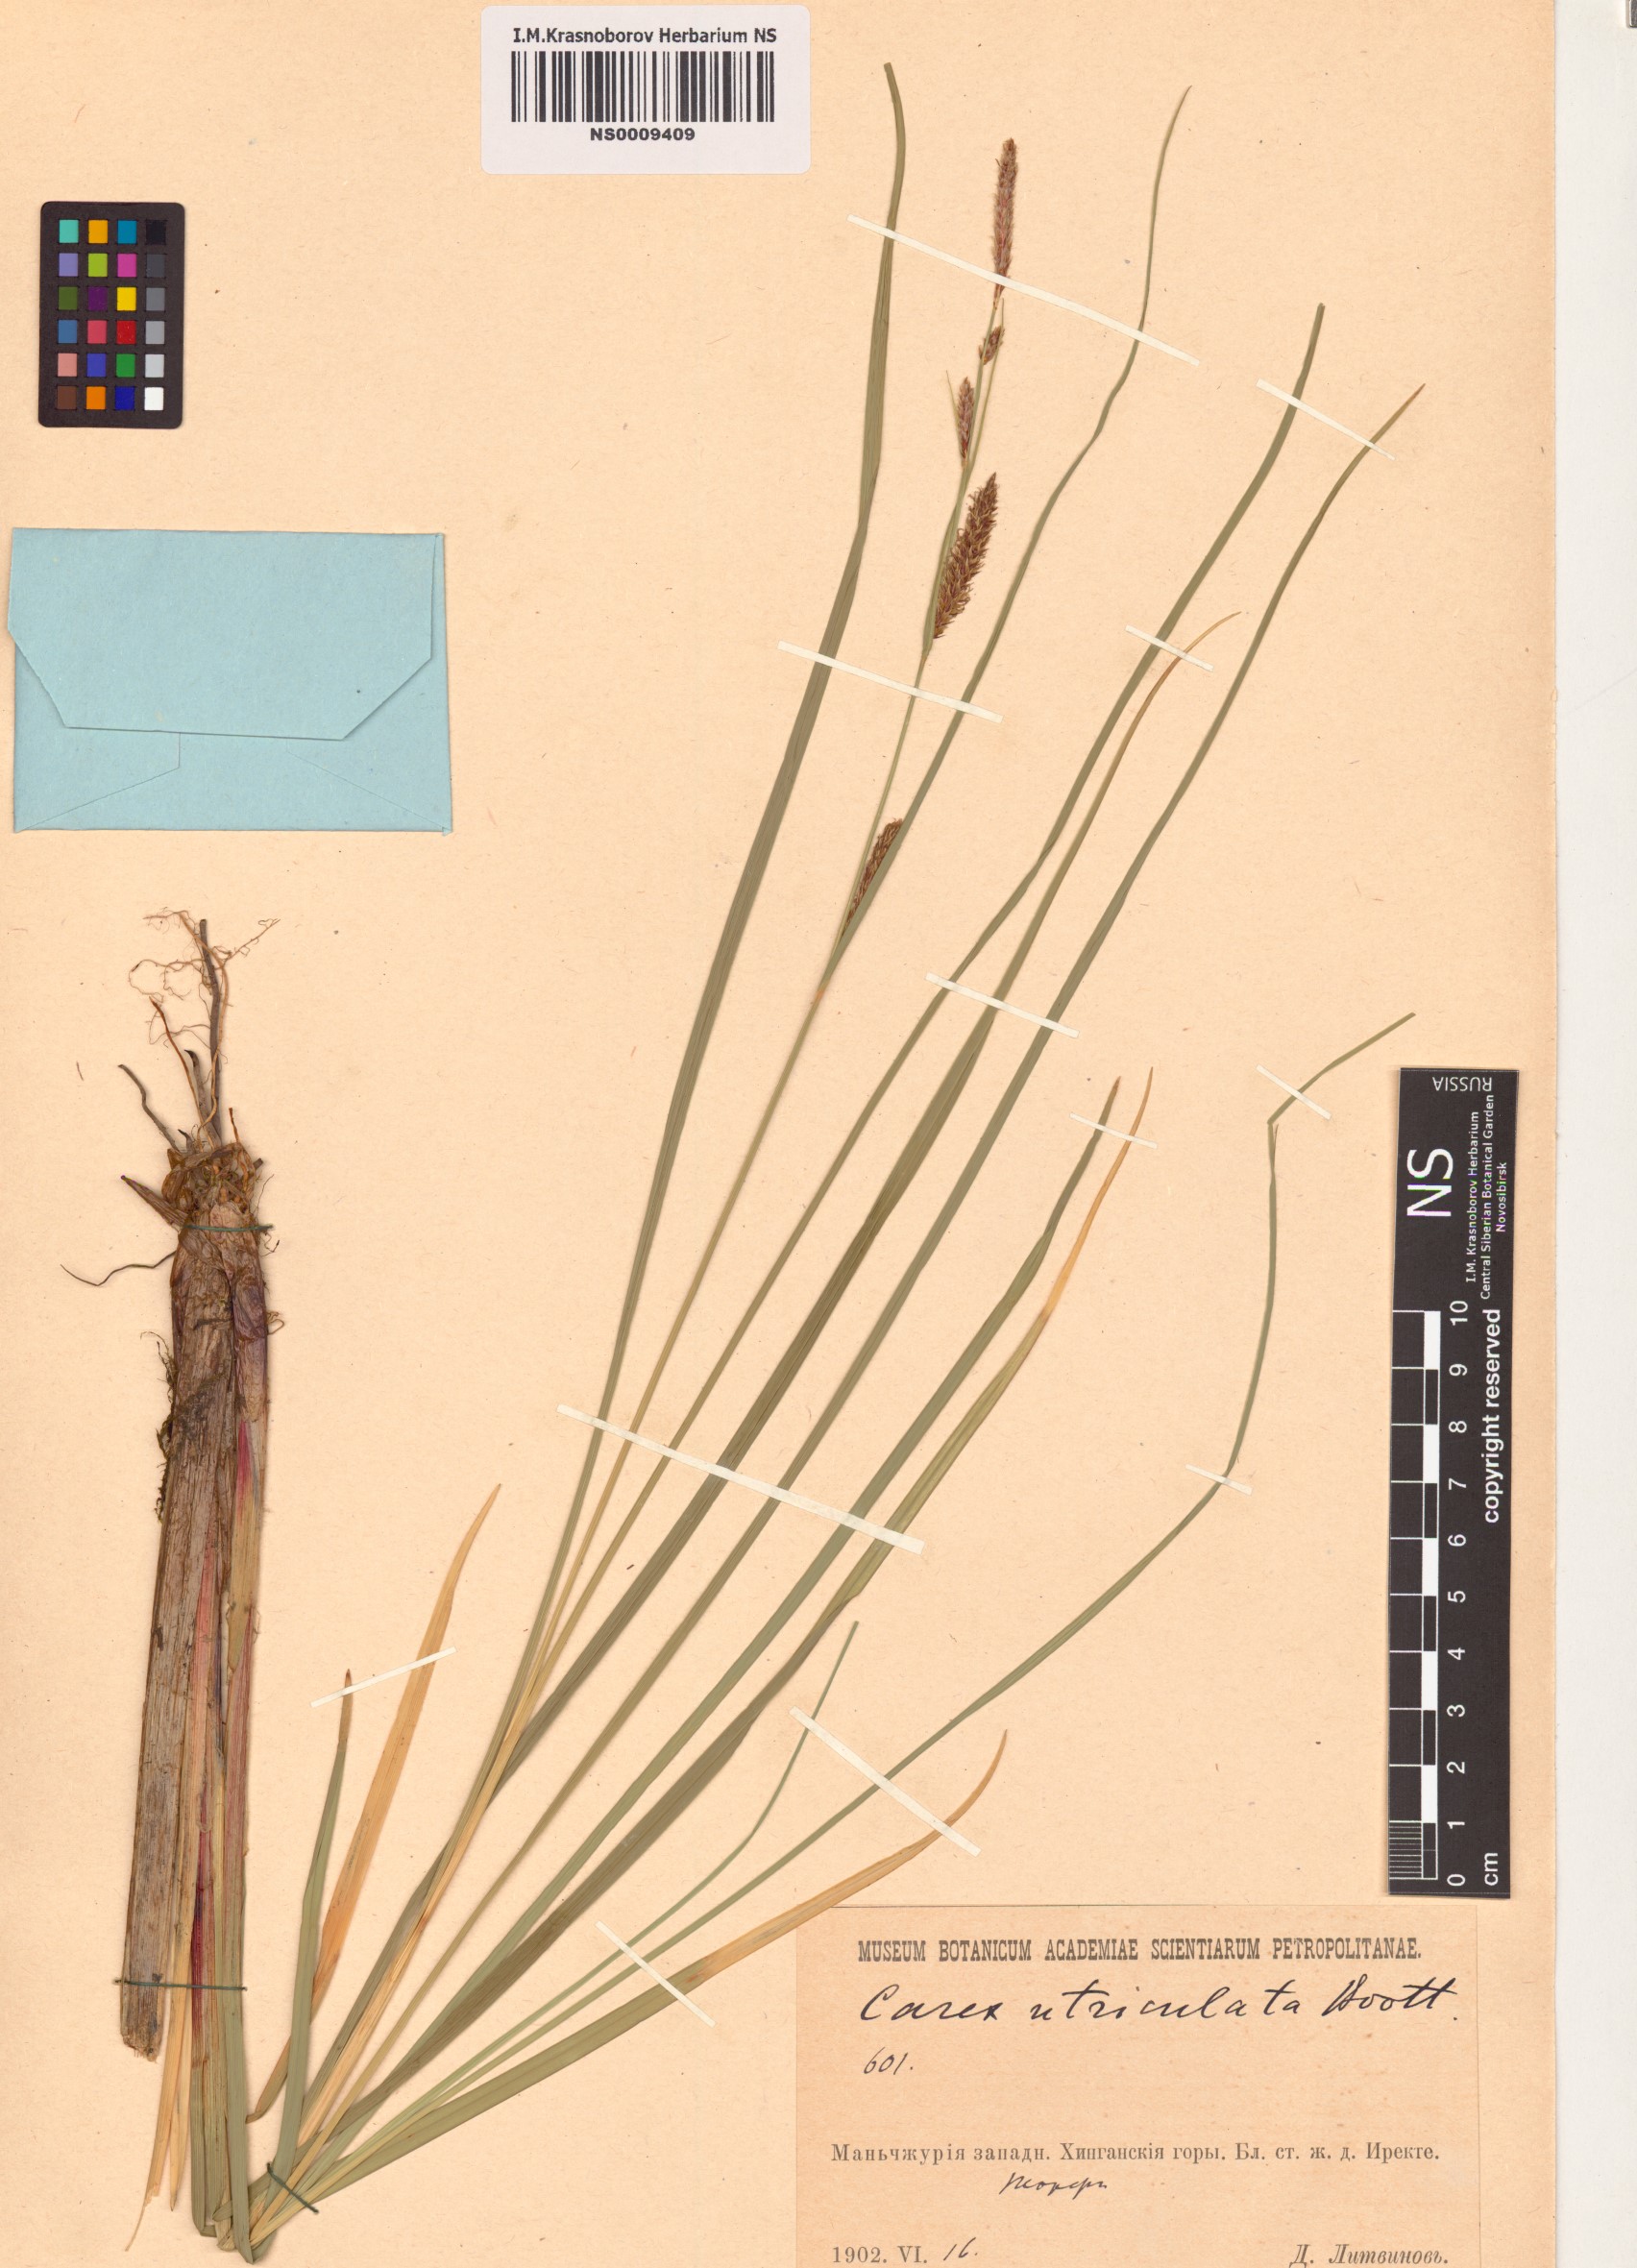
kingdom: Plantae
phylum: Tracheophyta
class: Liliopsida
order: Poales
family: Cyperaceae
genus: Carex
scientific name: Carex utriculata
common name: Beaked sedge
